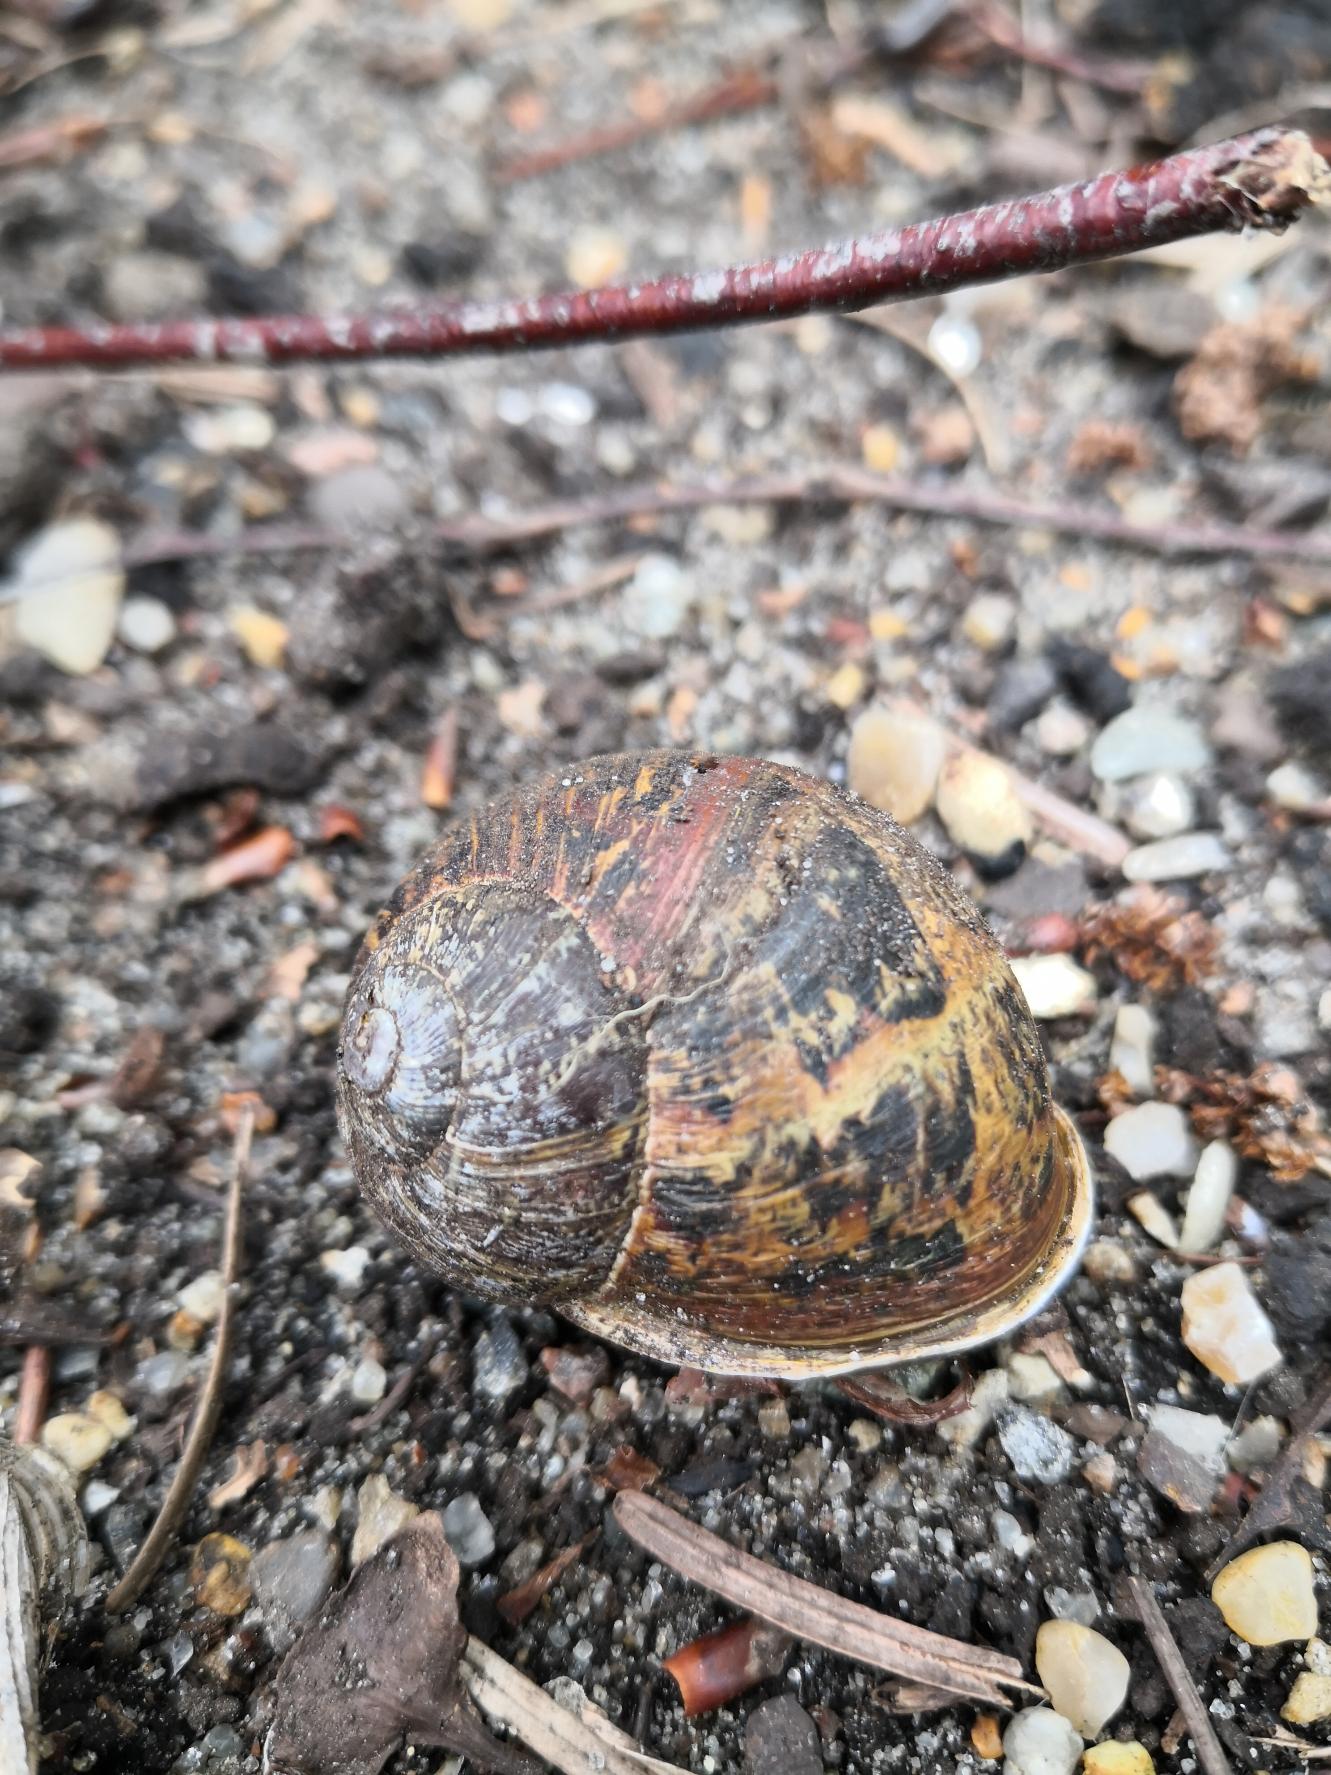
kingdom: Animalia
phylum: Mollusca
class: Gastropoda
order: Stylommatophora
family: Helicidae
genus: Cornu
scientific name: Cornu aspersum
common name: Plettet voldsnegl
